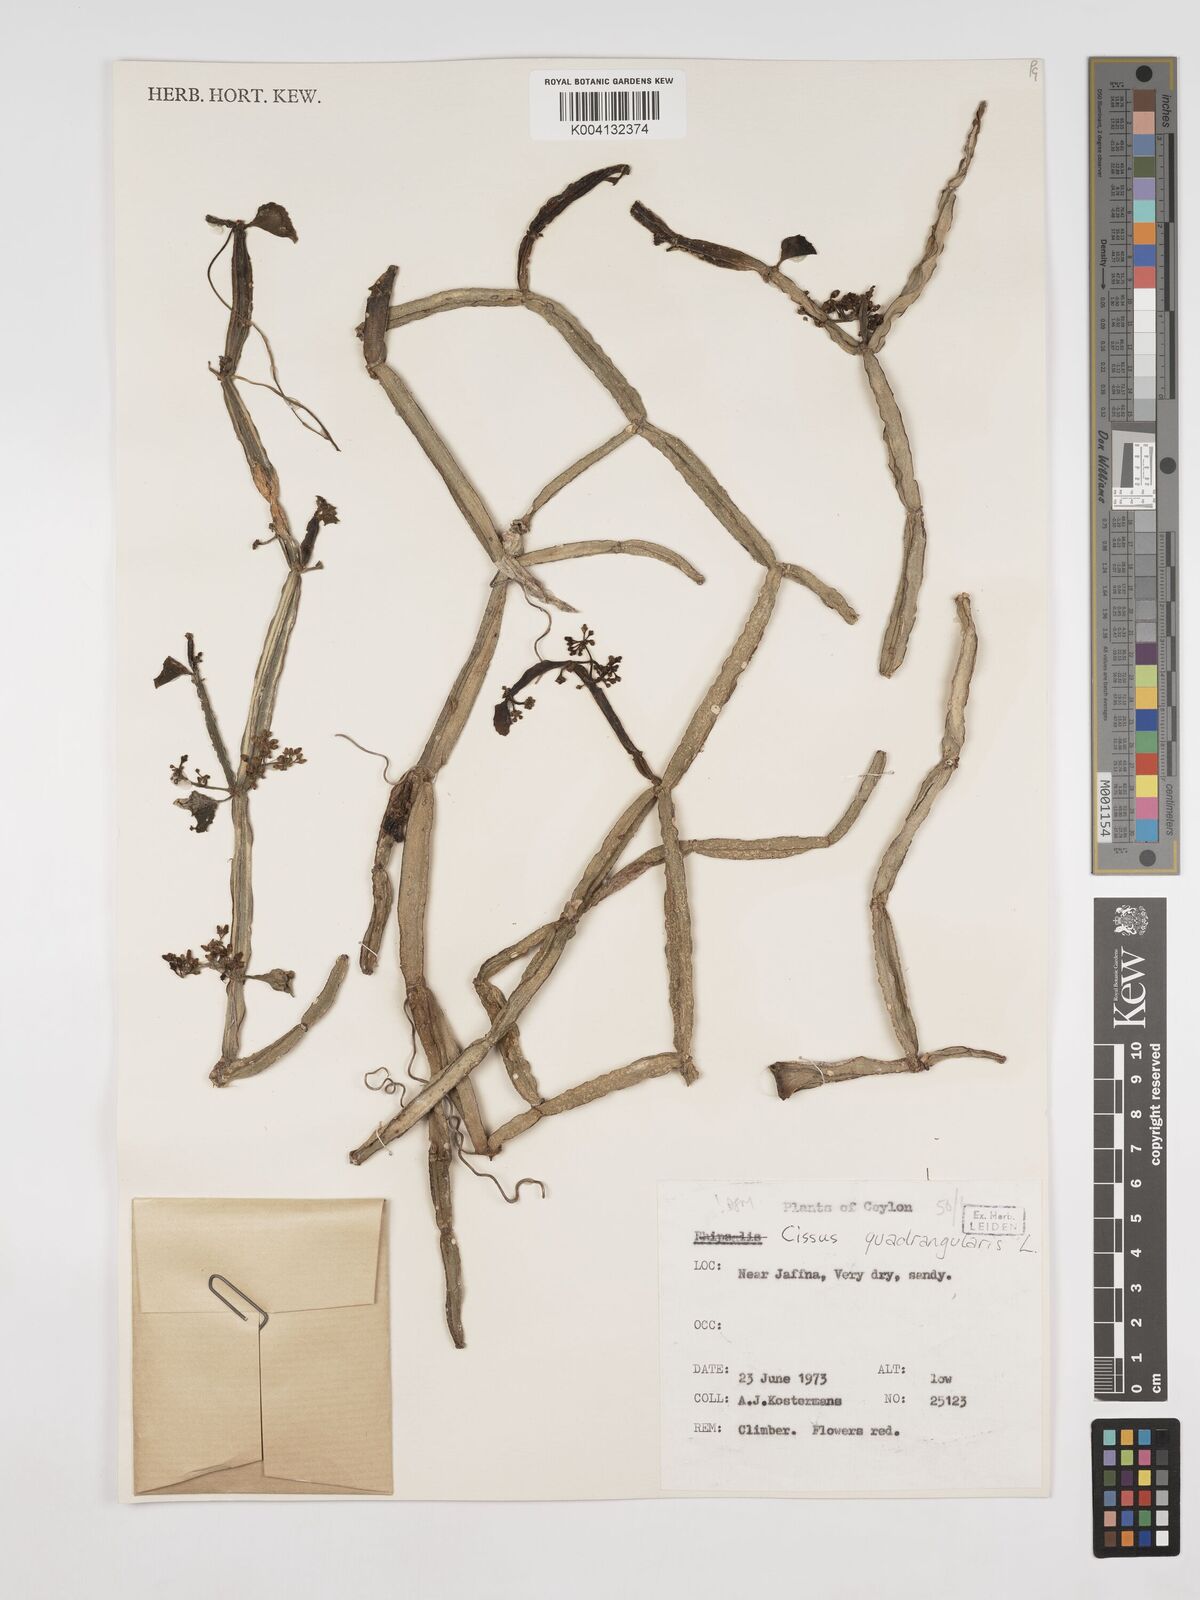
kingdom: Plantae
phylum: Tracheophyta
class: Magnoliopsida
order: Vitales
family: Vitaceae
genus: Cissus
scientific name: Cissus quadrangularis
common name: Veldt-grape
